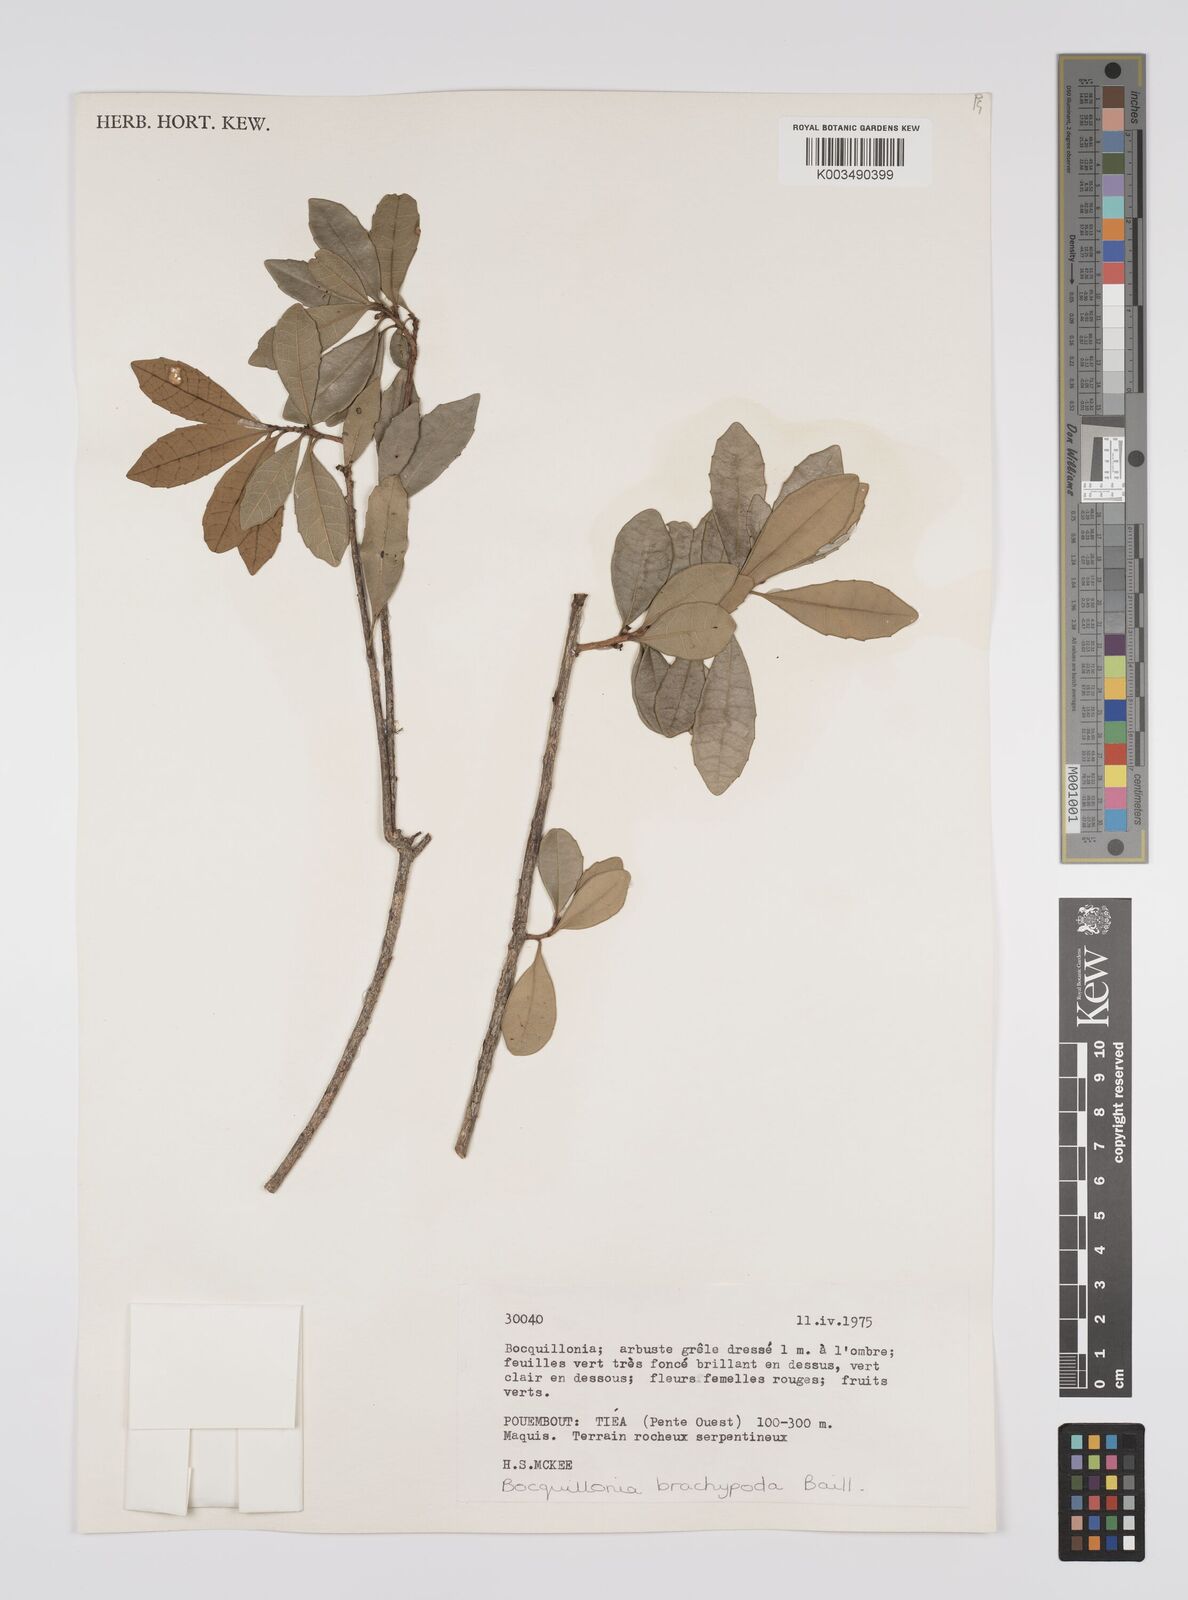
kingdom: Plantae
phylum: Tracheophyta
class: Magnoliopsida
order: Malpighiales
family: Euphorbiaceae
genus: Bocquillonia
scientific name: Bocquillonia brachypoda
